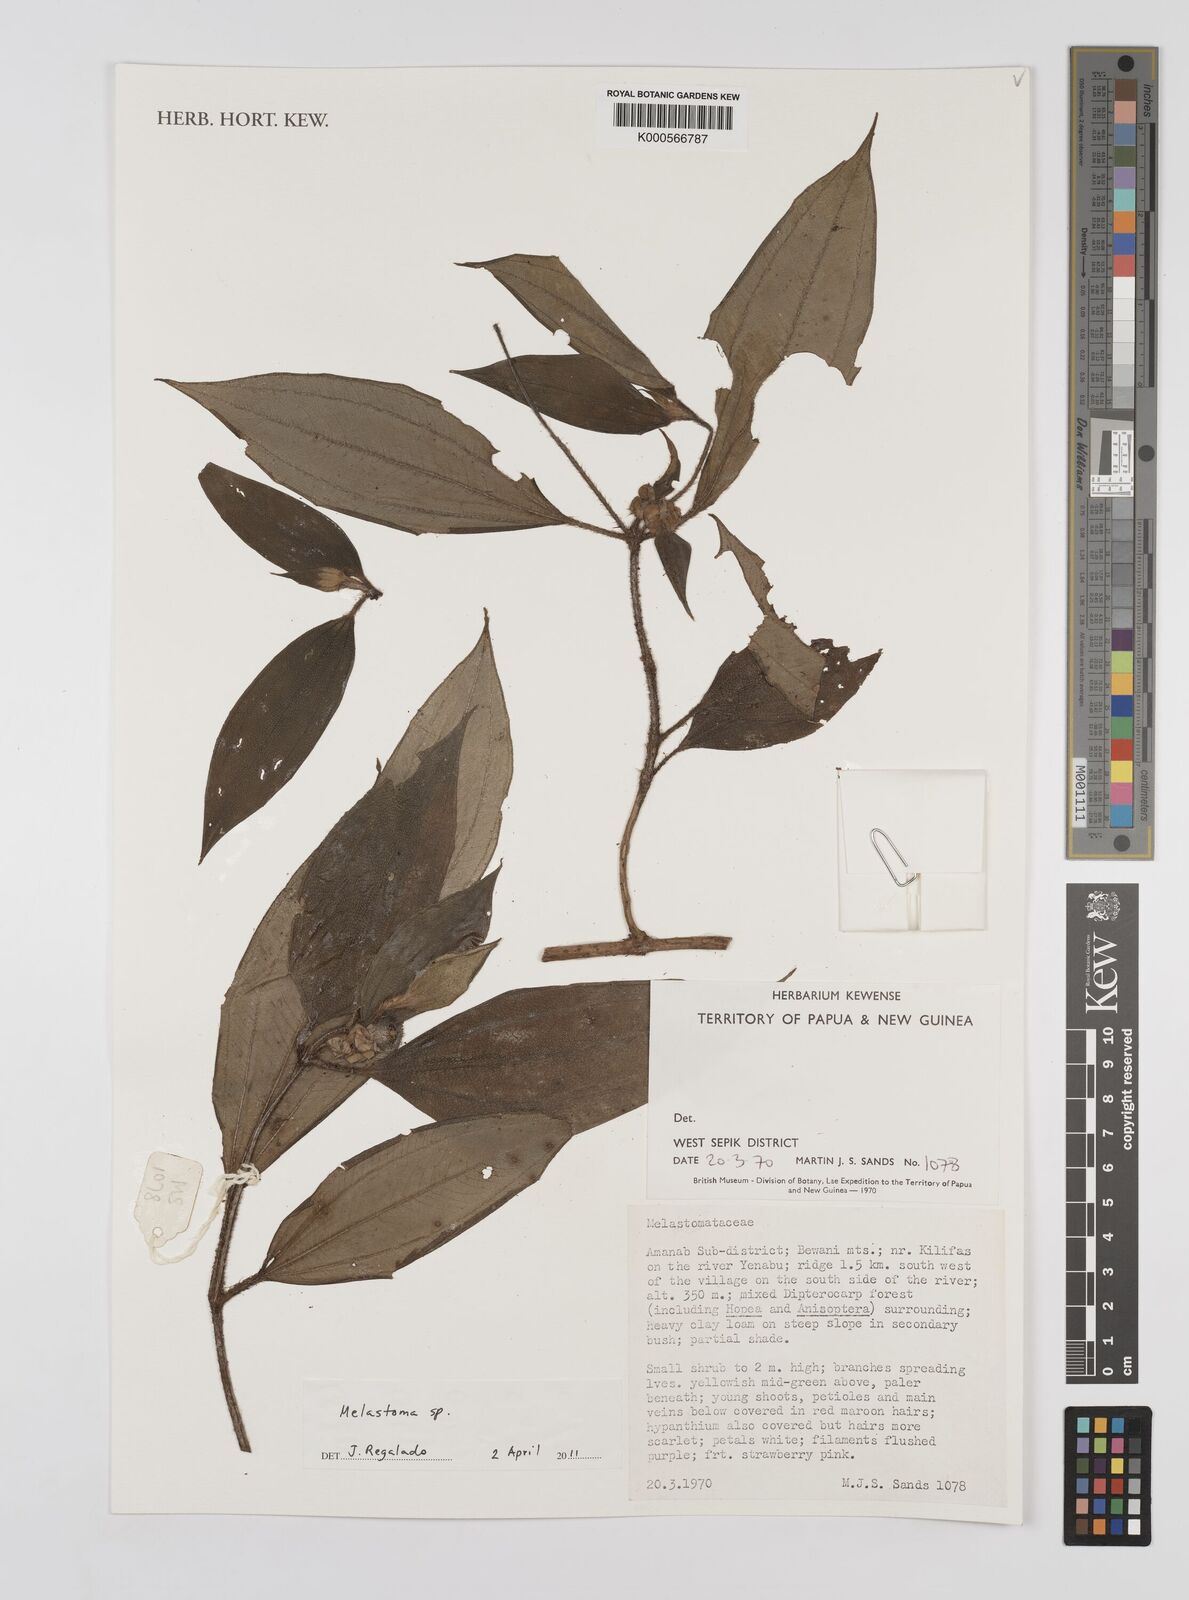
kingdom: Plantae
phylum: Tracheophyta
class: Magnoliopsida
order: Myrtales
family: Melastomataceae
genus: Melastoma
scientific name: Melastoma
